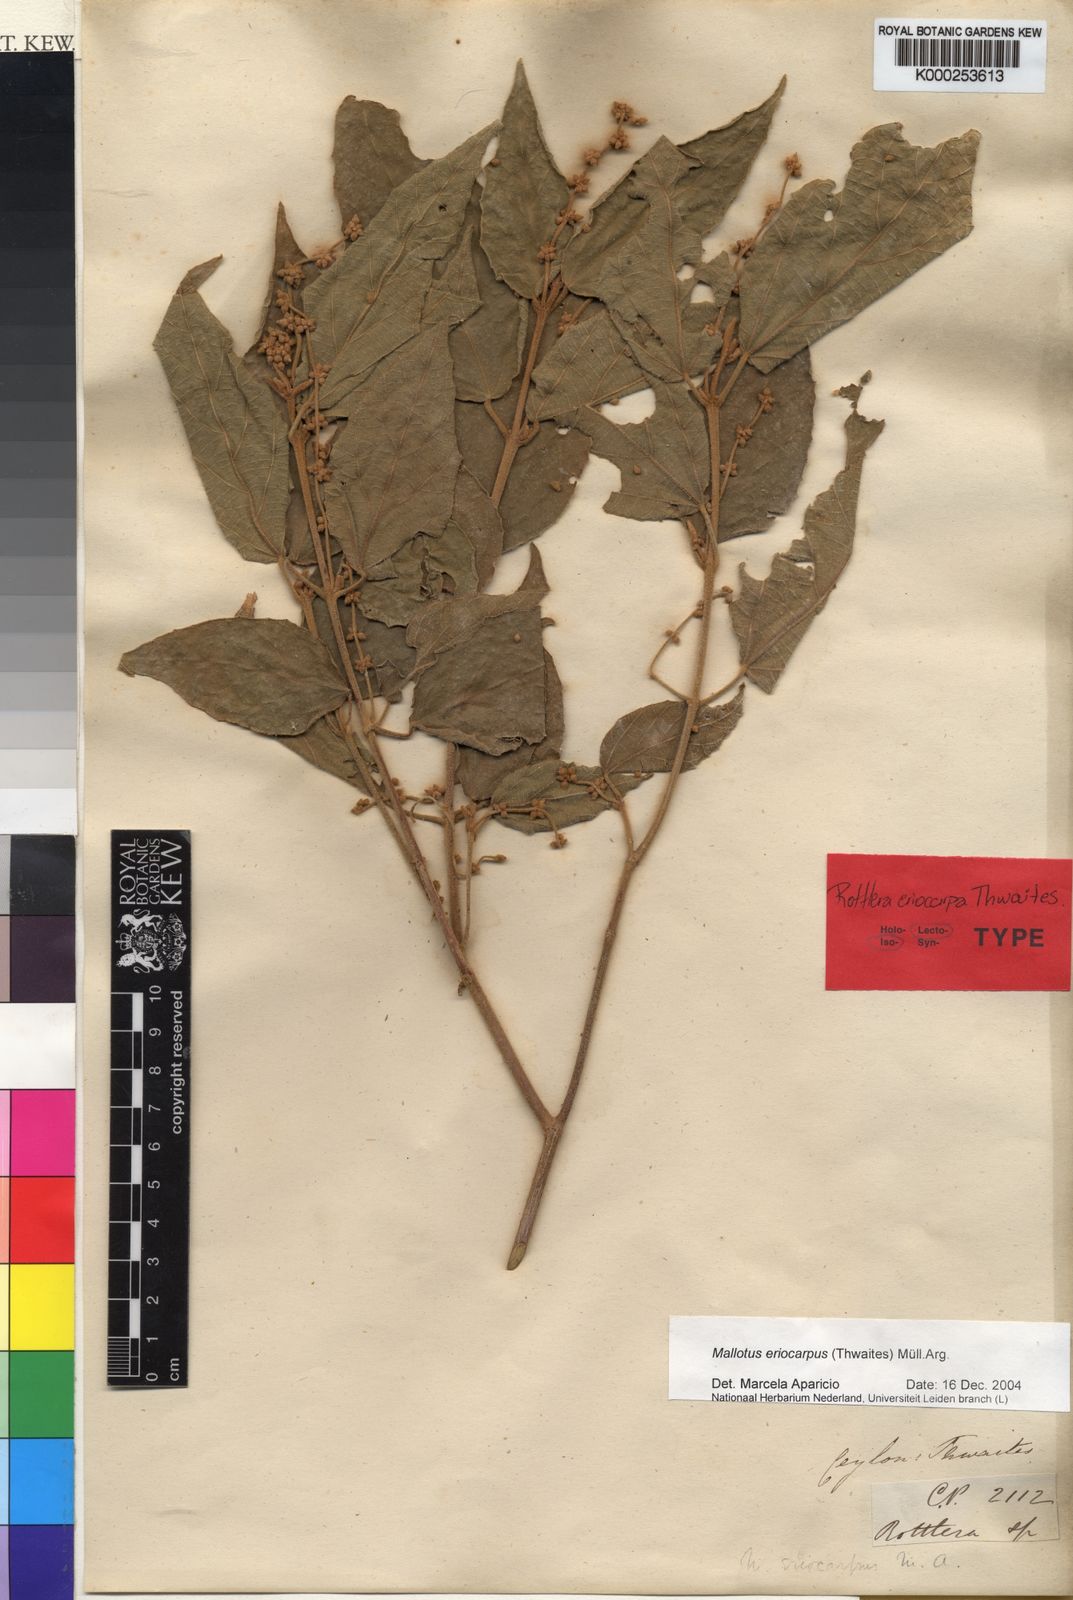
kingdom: Plantae
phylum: Tracheophyta
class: Magnoliopsida
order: Malpighiales
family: Euphorbiaceae
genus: Mallotus
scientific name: Mallotus eriocarpus
